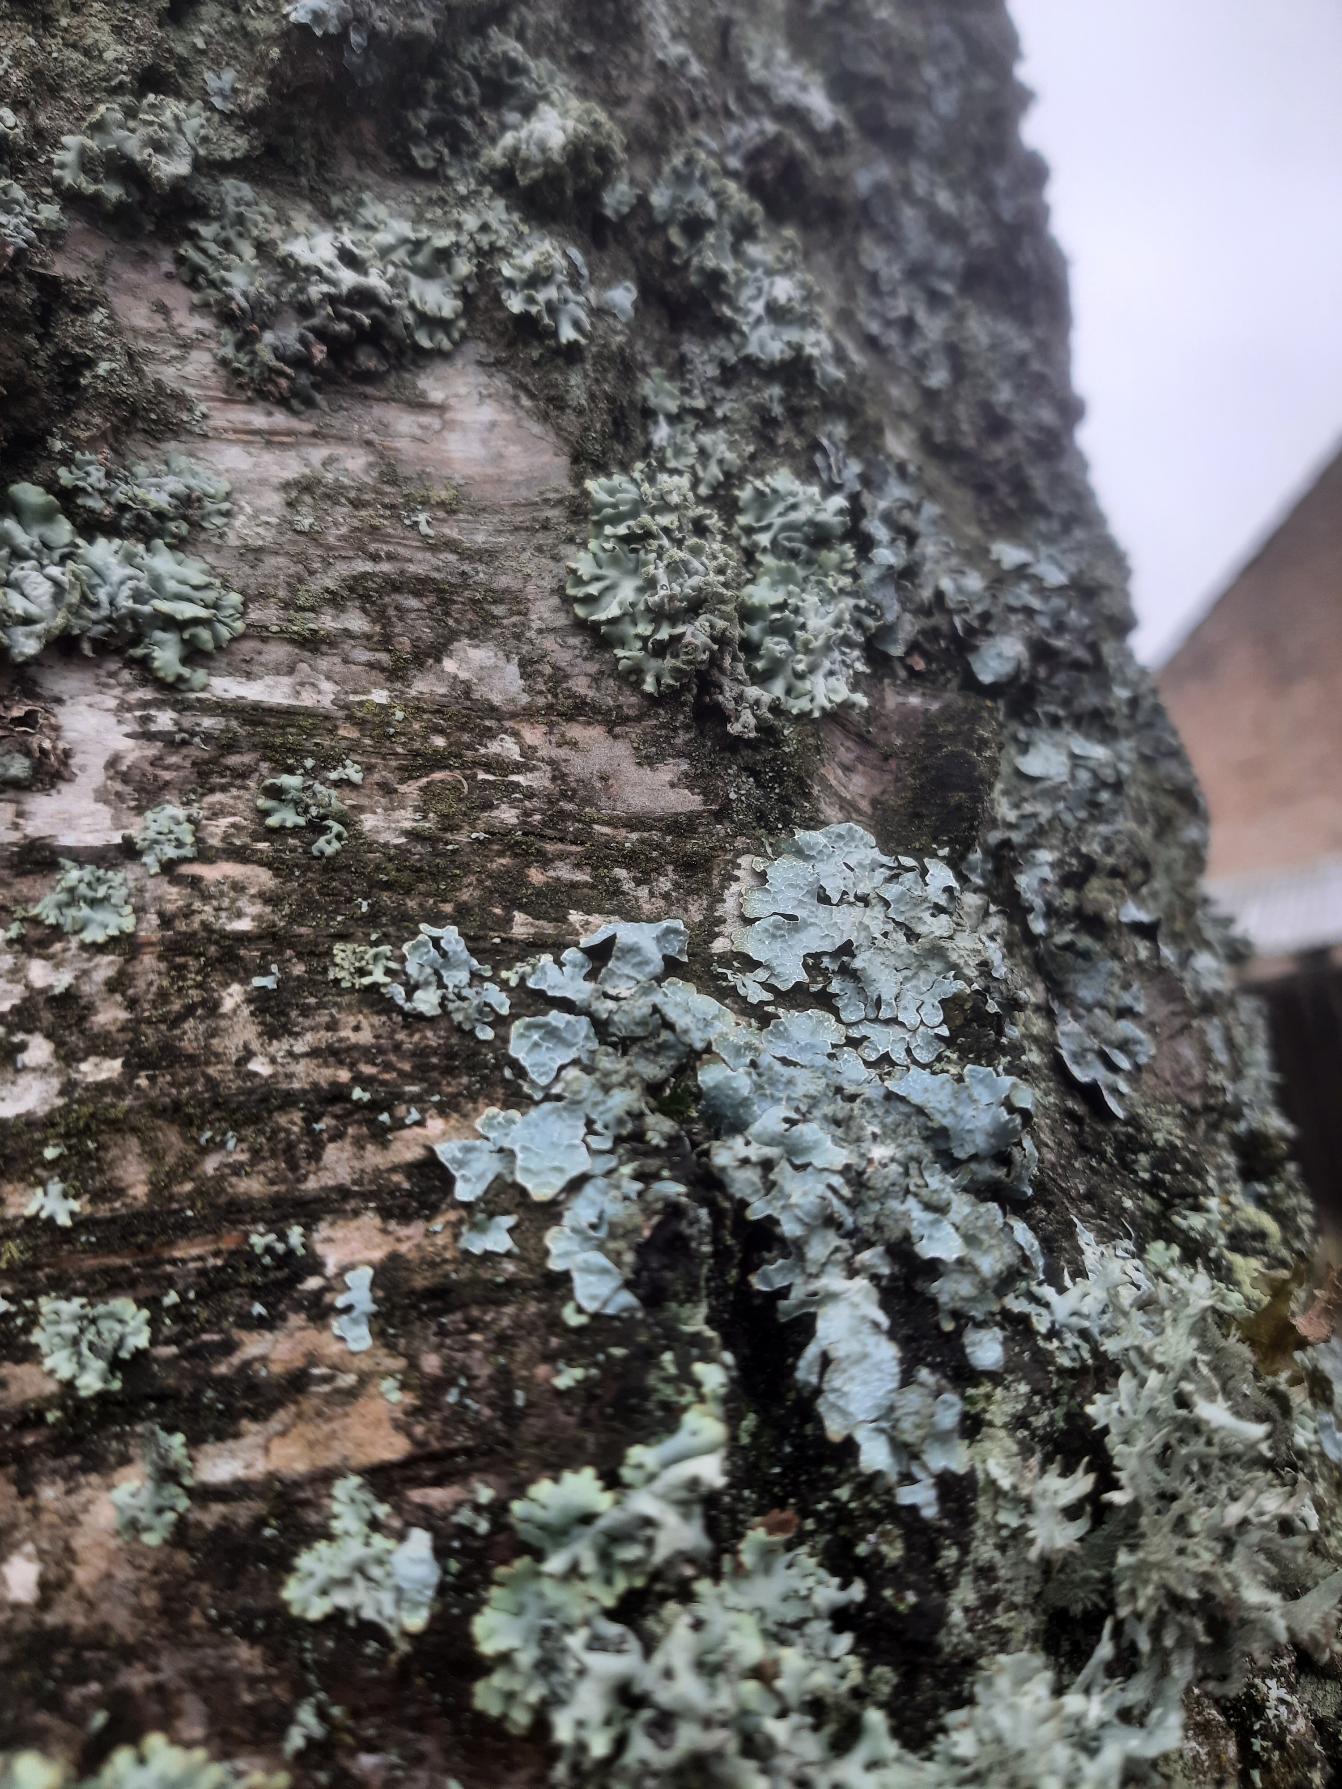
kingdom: Fungi
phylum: Ascomycota
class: Lecanoromycetes
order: Lecanorales
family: Parmeliaceae
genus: Parmelia
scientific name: Parmelia sulcata
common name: Rynket skållav
